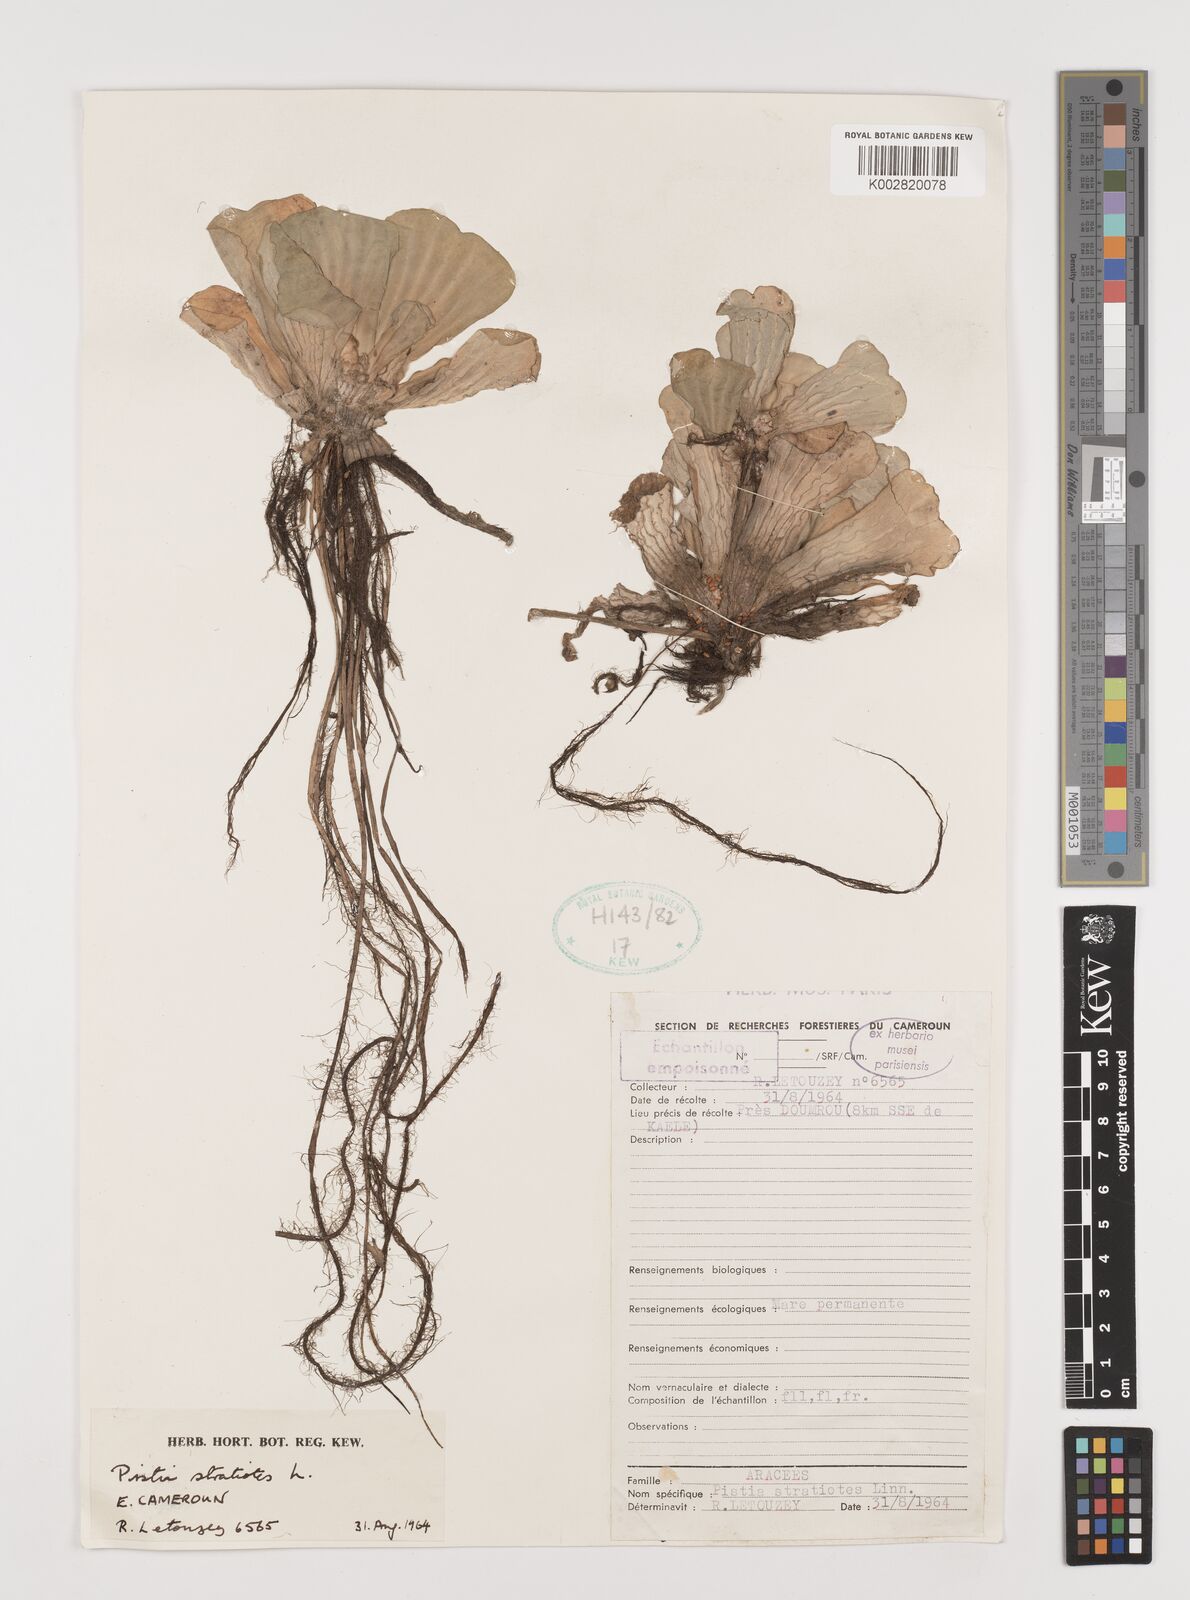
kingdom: Plantae
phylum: Tracheophyta
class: Liliopsida
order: Alismatales
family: Araceae
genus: Pistia
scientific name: Pistia stratiotes
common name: Water lettuce
